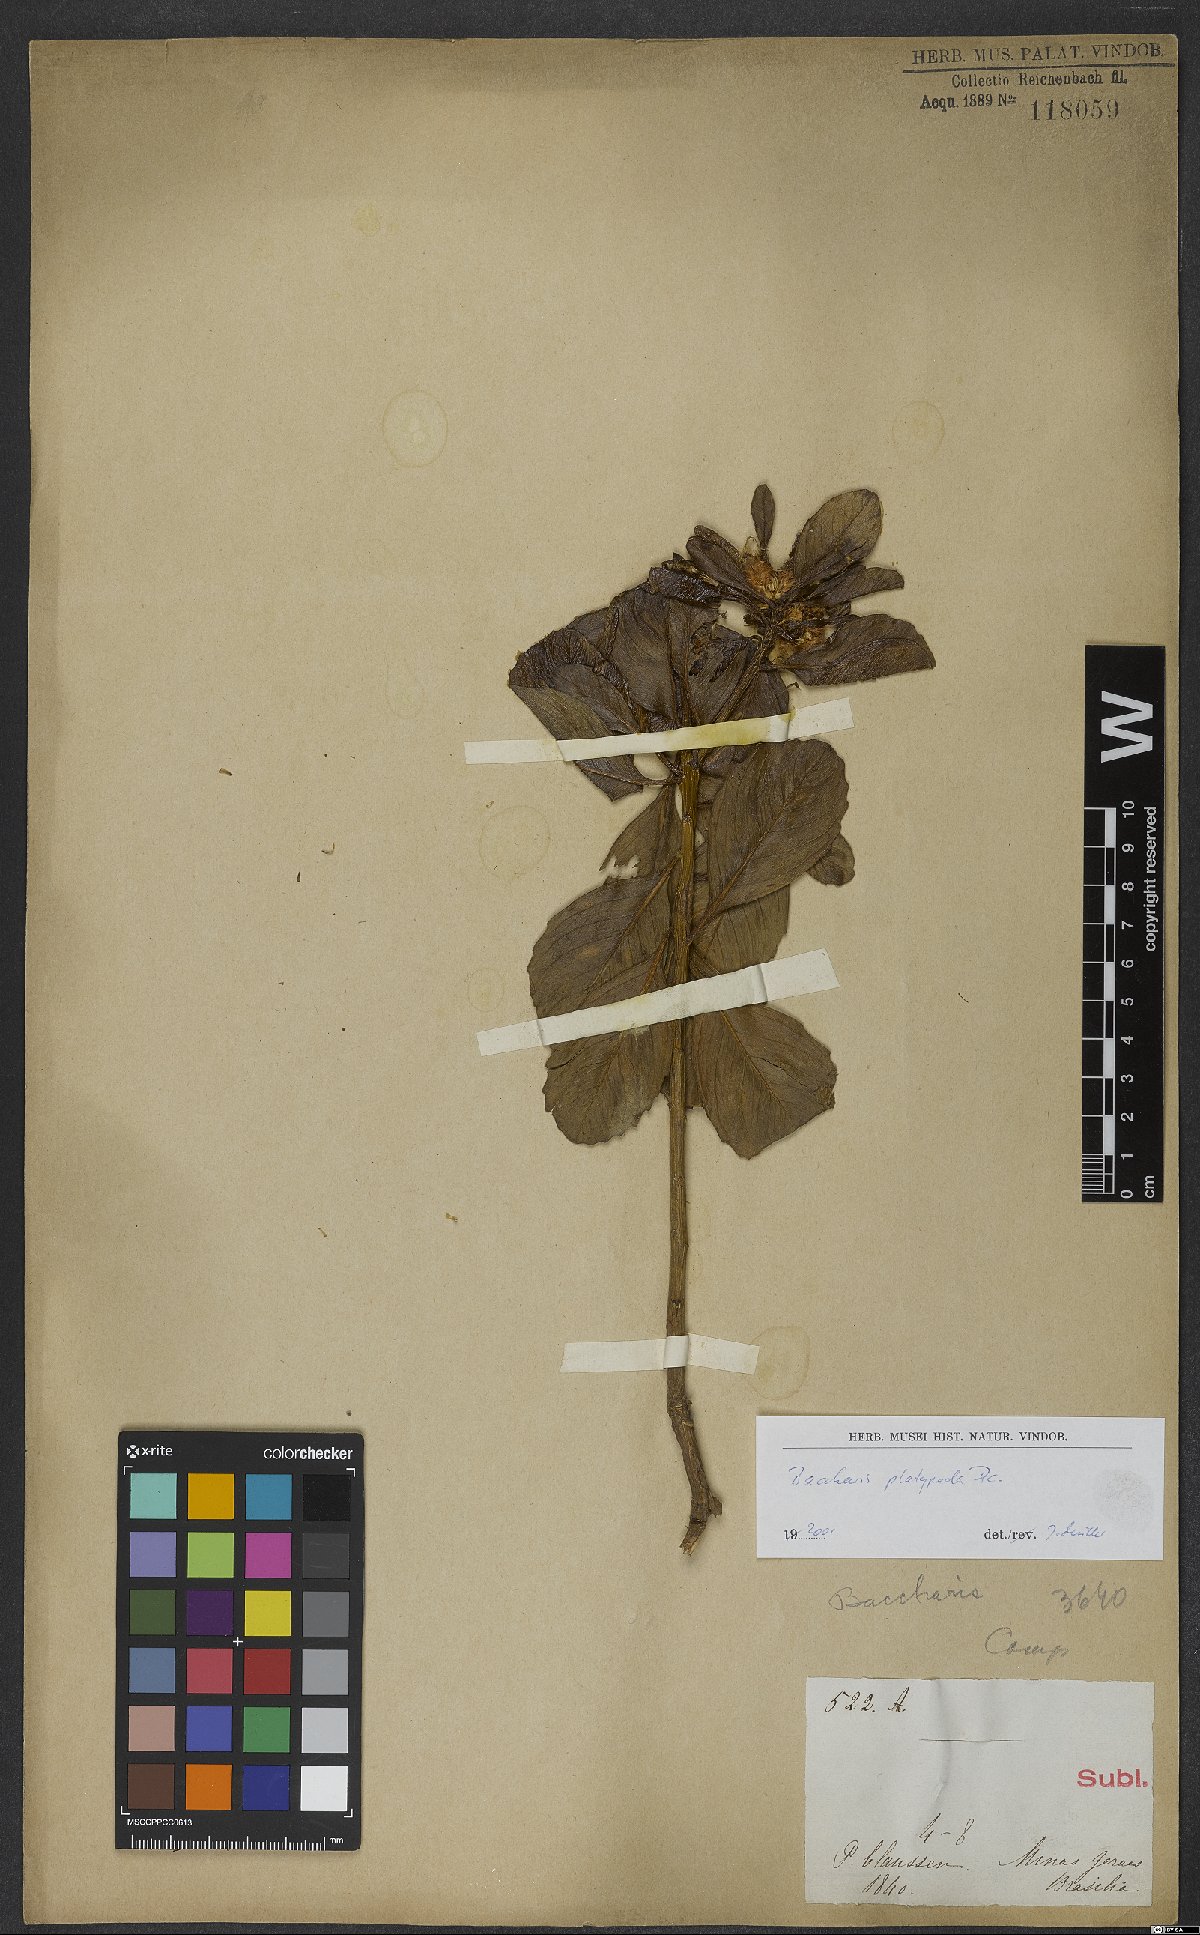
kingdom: Plantae
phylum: Tracheophyta
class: Magnoliopsida
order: Asterales
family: Asteraceae
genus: Baccharis
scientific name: Baccharis platypoda
